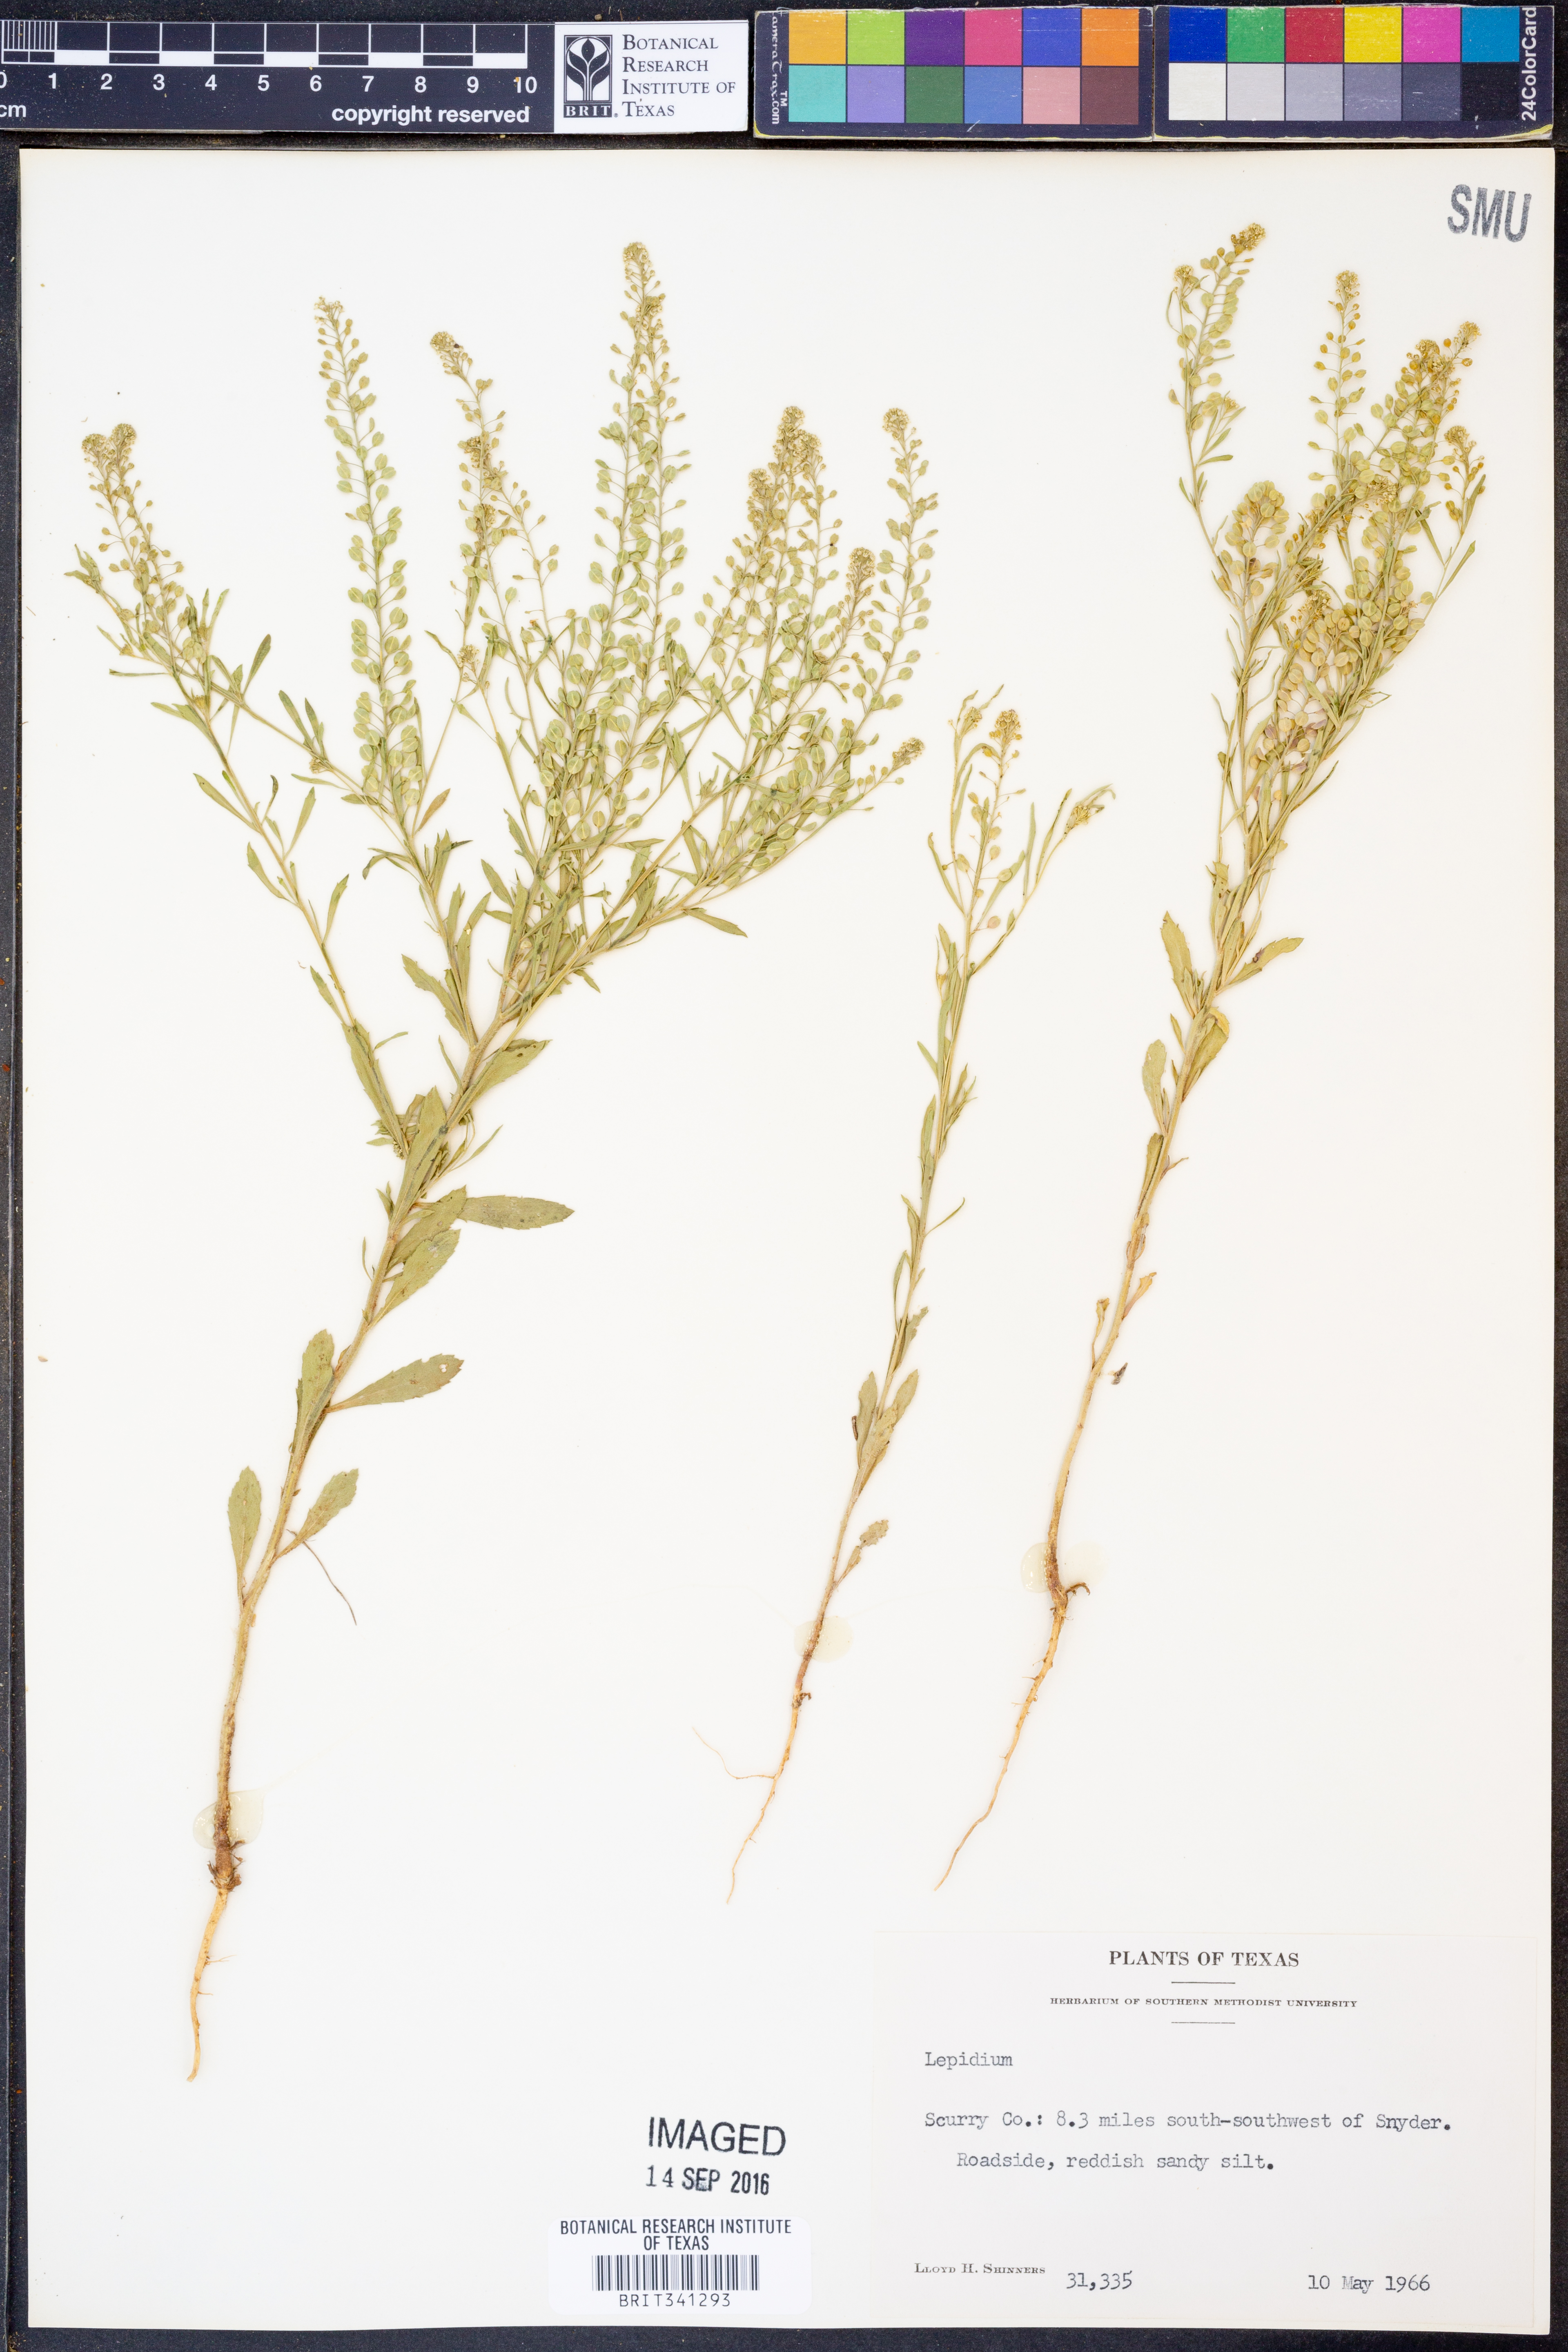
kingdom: Plantae
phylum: Tracheophyta
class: Magnoliopsida
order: Brassicales
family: Brassicaceae
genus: Lepidium
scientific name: Lepidium
